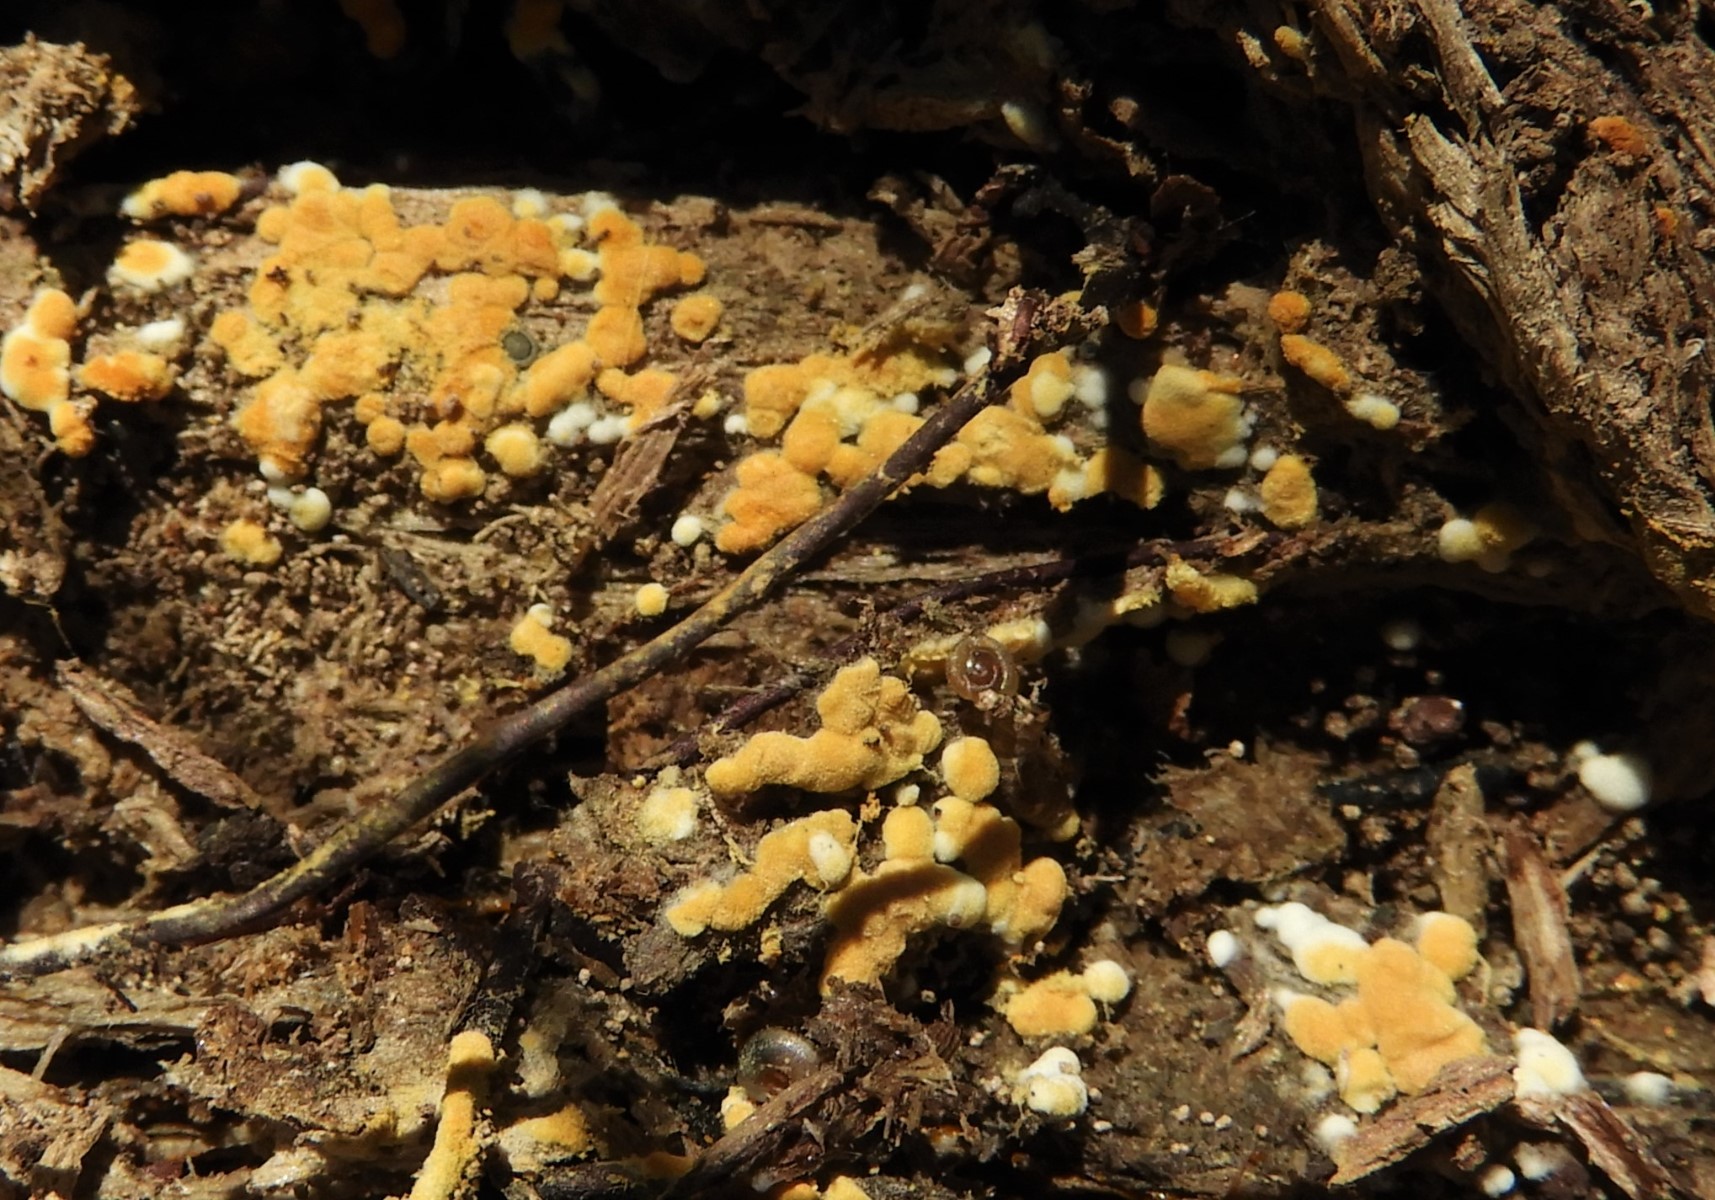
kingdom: Fungi
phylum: Basidiomycota
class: Agaricomycetes
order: Cantharellales
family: Botryobasidiaceae
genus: Botryobasidium
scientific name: Botryobasidium aureum
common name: gylden spindhinde
